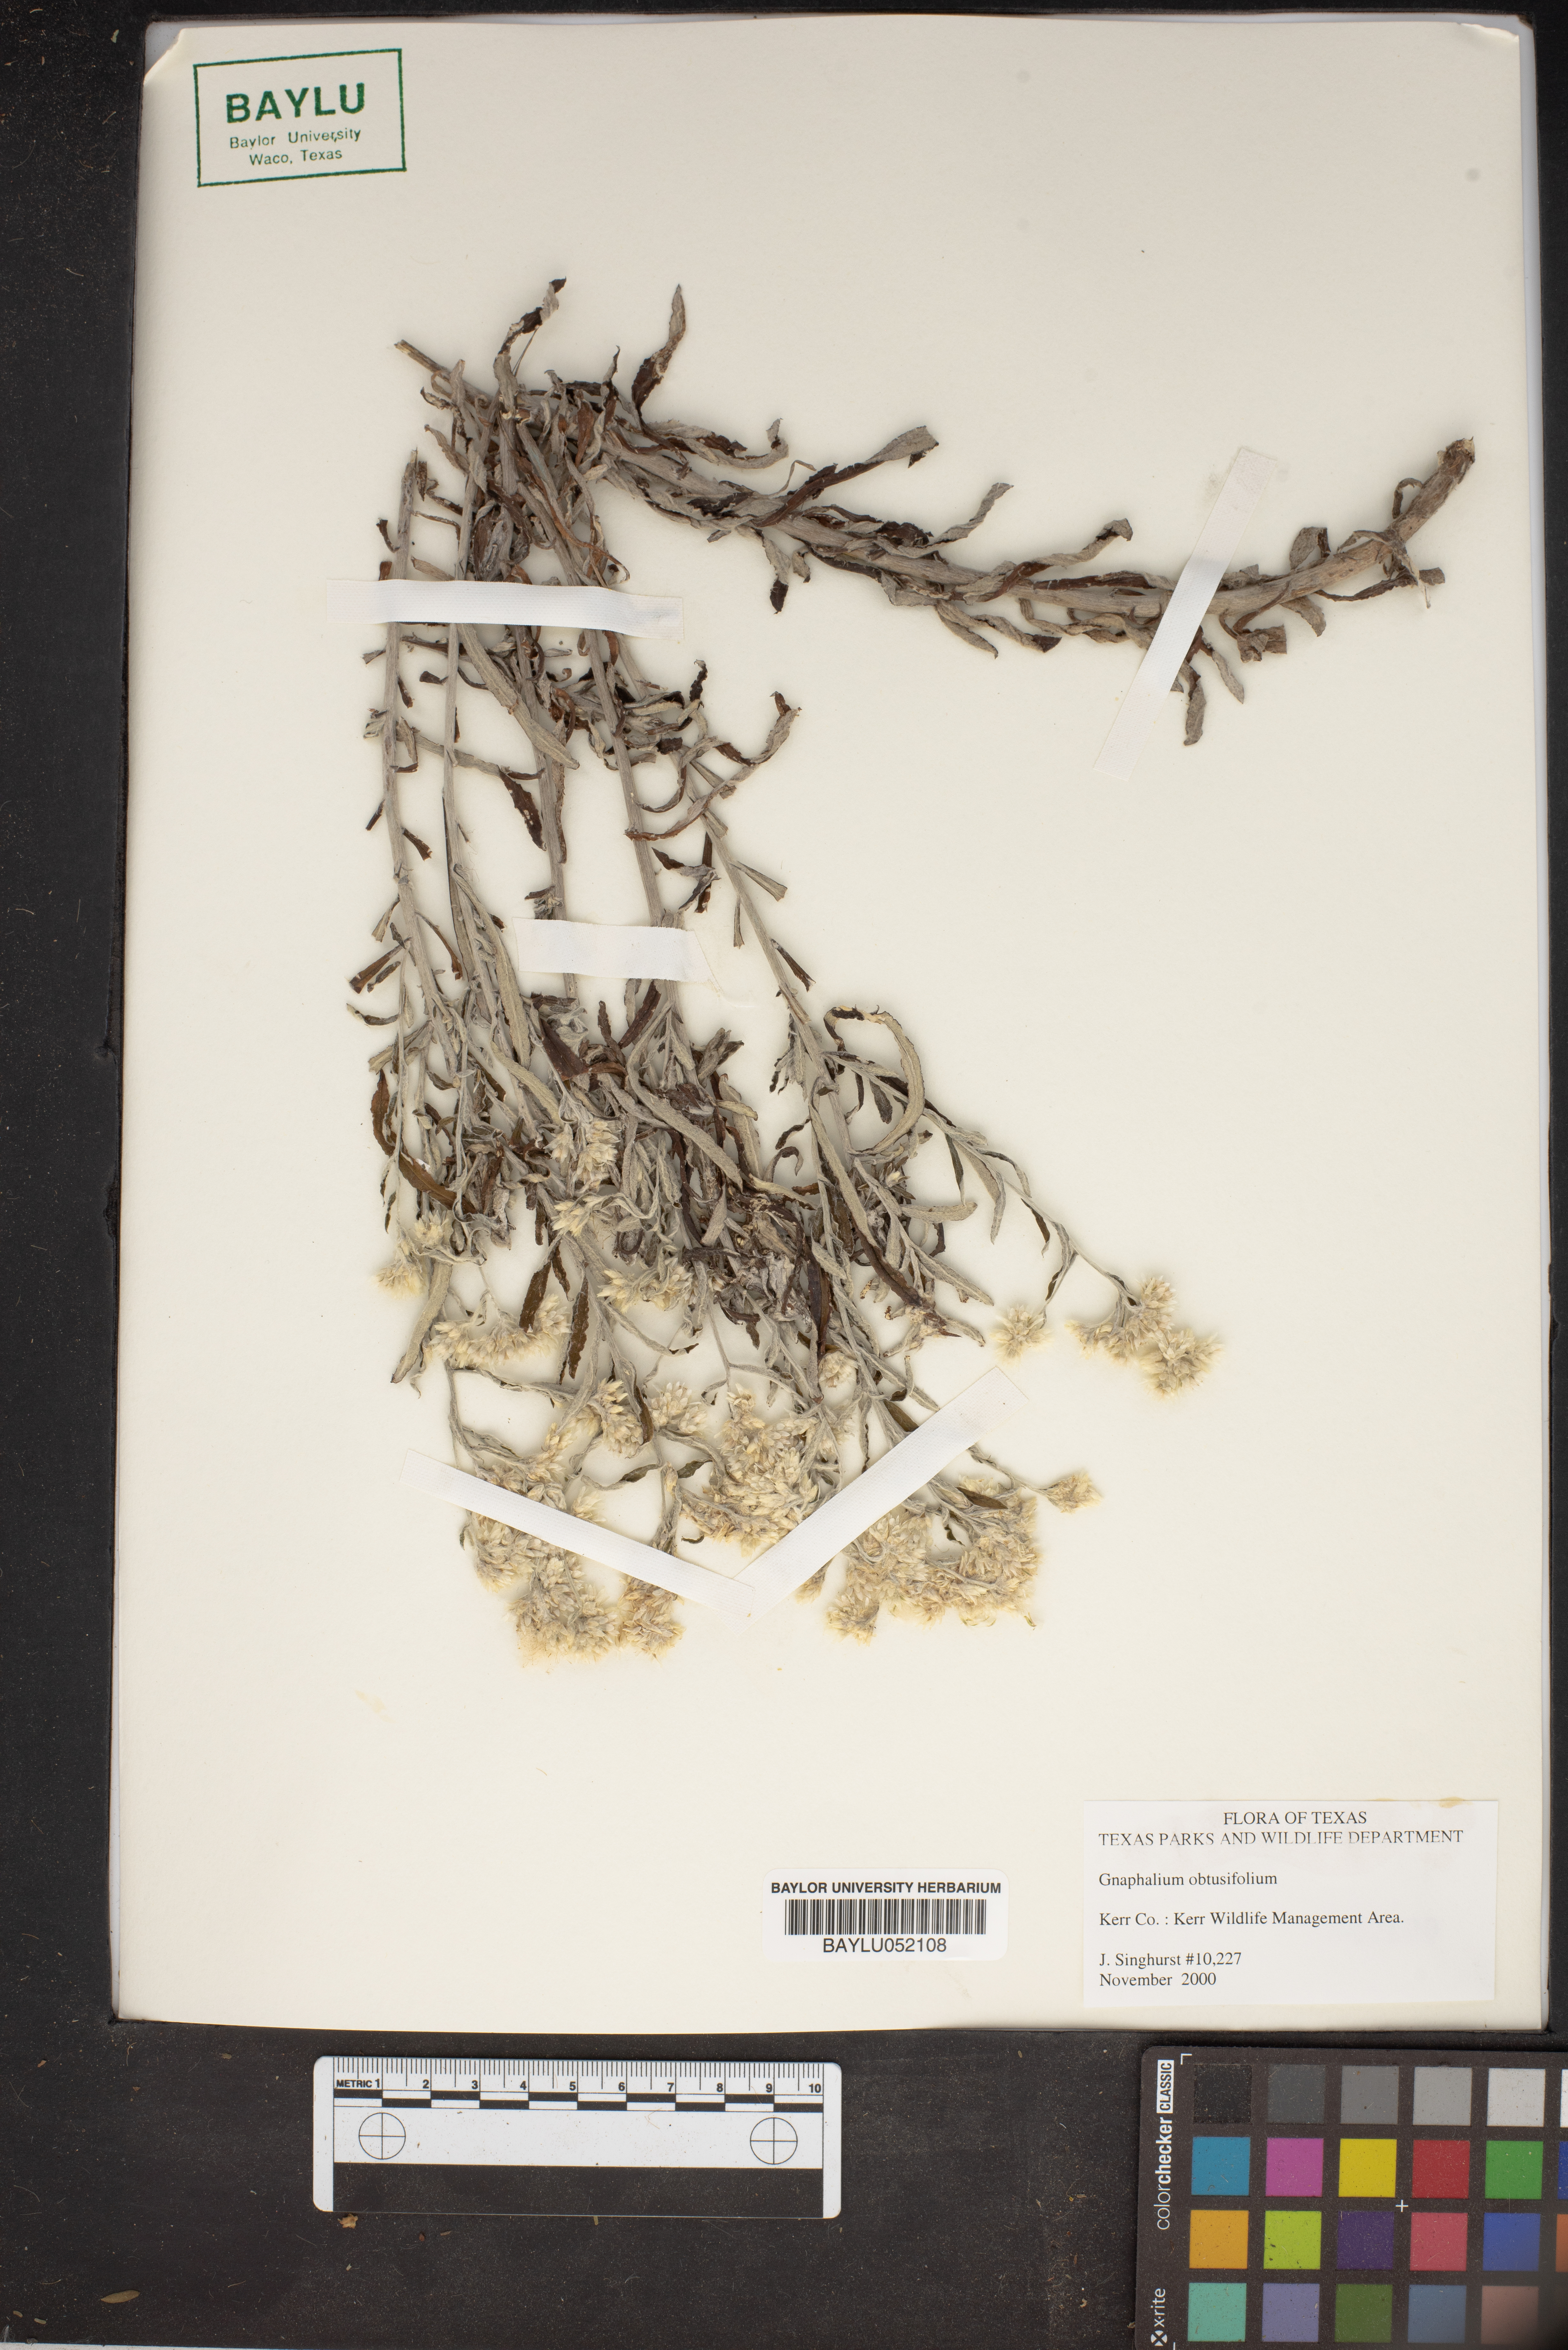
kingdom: Plantae
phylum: Tracheophyta
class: Magnoliopsida
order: Asterales
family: Asteraceae
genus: Pseudognaphalium
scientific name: Pseudognaphalium obtusifolium
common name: Eastern rabbit-tobacco
